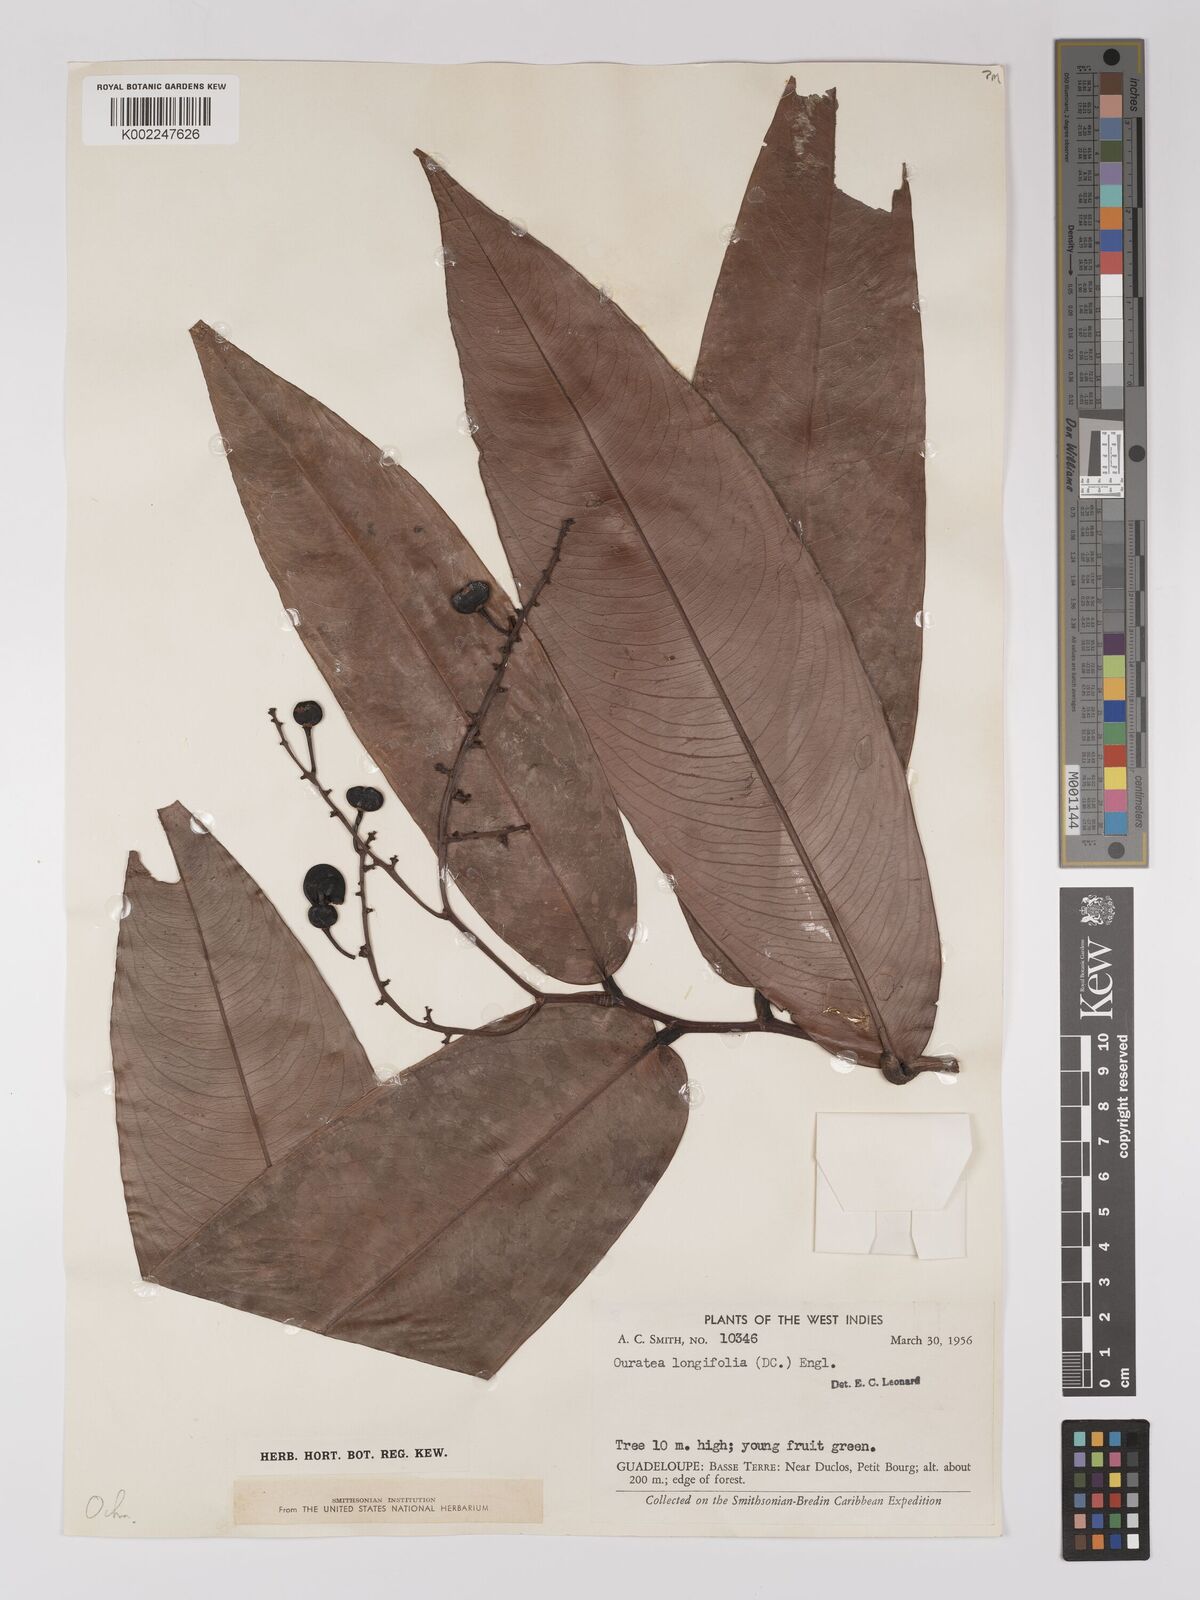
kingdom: Plantae
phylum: Tracheophyta
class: Magnoliopsida
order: Malpighiales
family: Ochnaceae
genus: Ouratea
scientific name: Ouratea longifolia
